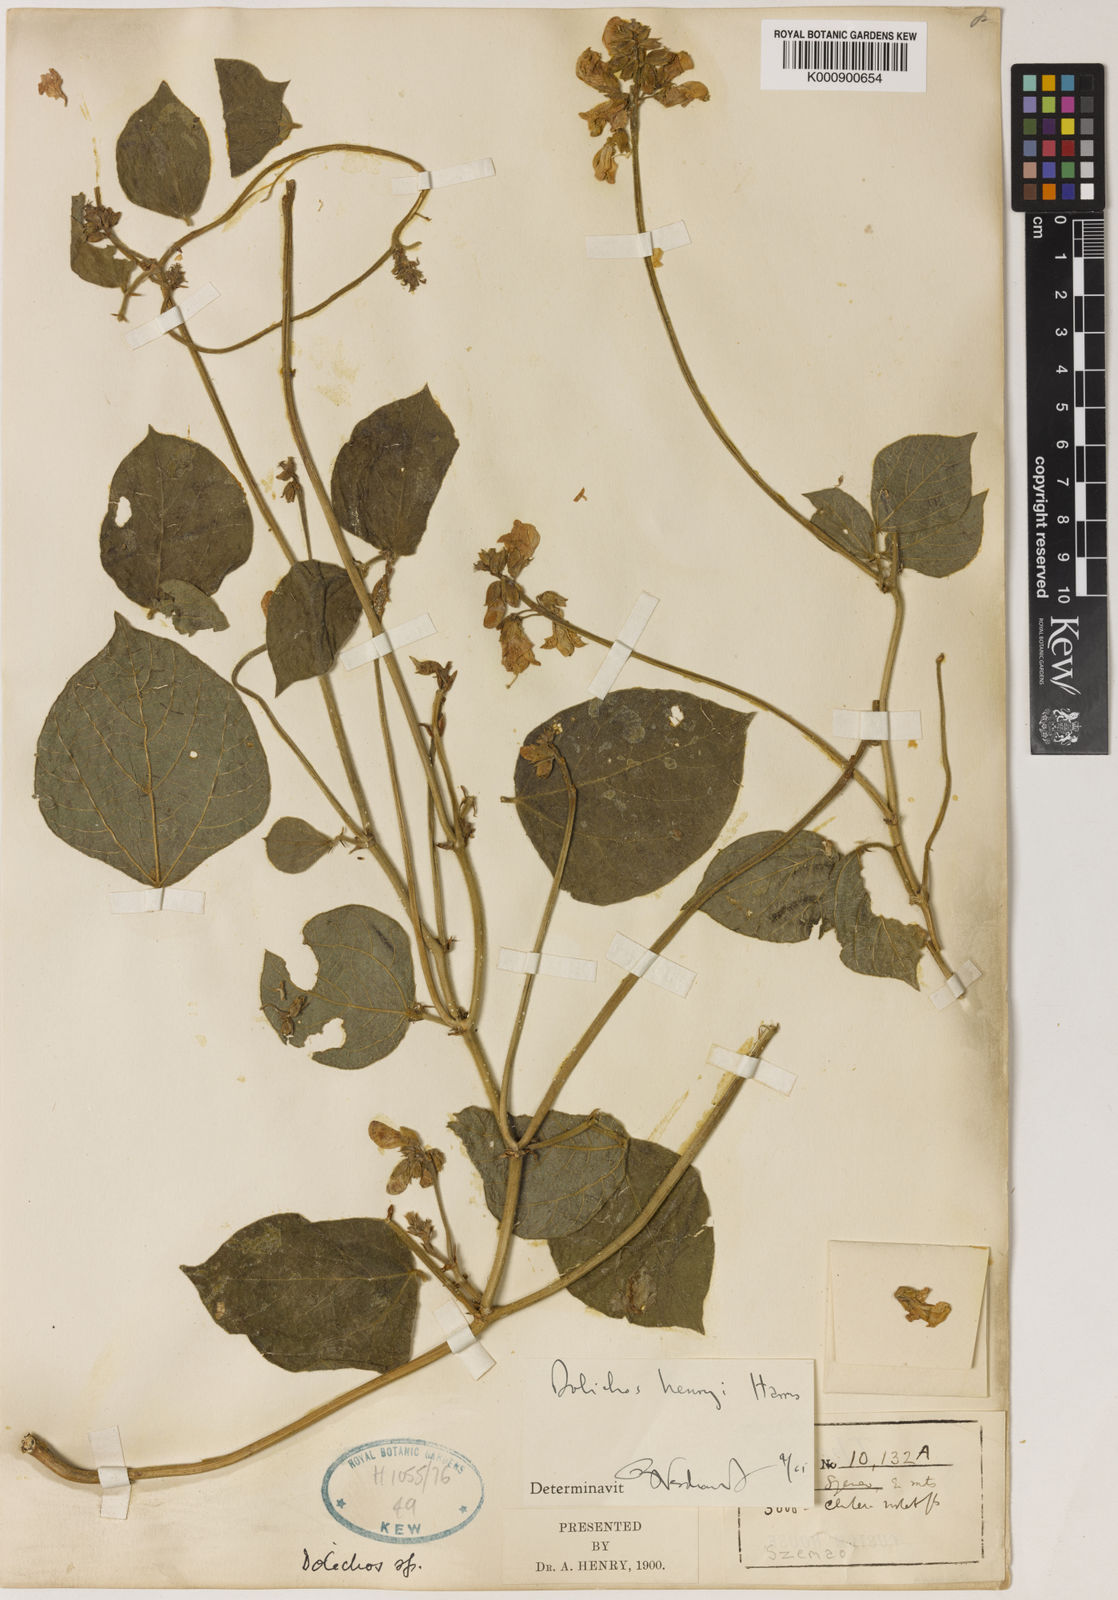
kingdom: Plantae
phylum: Tracheophyta
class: Magnoliopsida
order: Fabales
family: Fabaceae
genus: Dolichos
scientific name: Dolichos junghuhnianus
